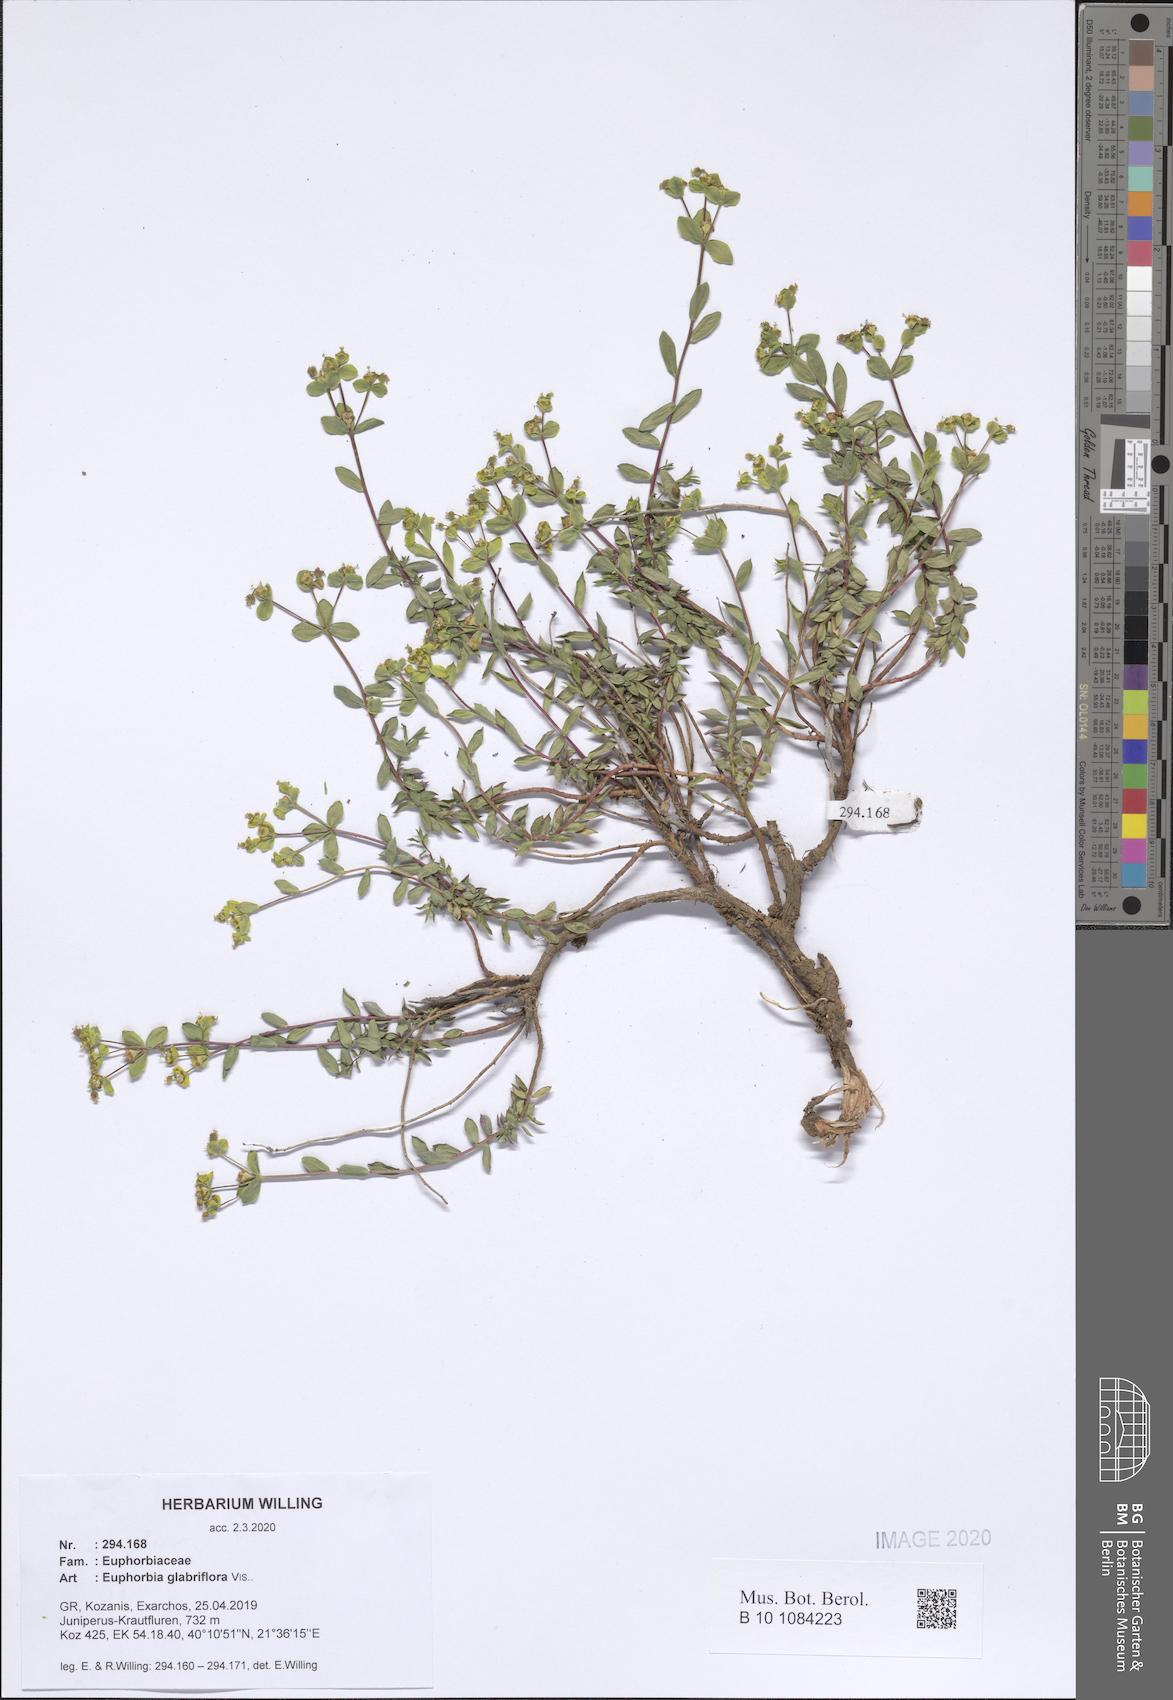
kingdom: Plantae
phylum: Tracheophyta
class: Magnoliopsida
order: Malpighiales
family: Euphorbiaceae
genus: Euphorbia
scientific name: Euphorbia spinosa
